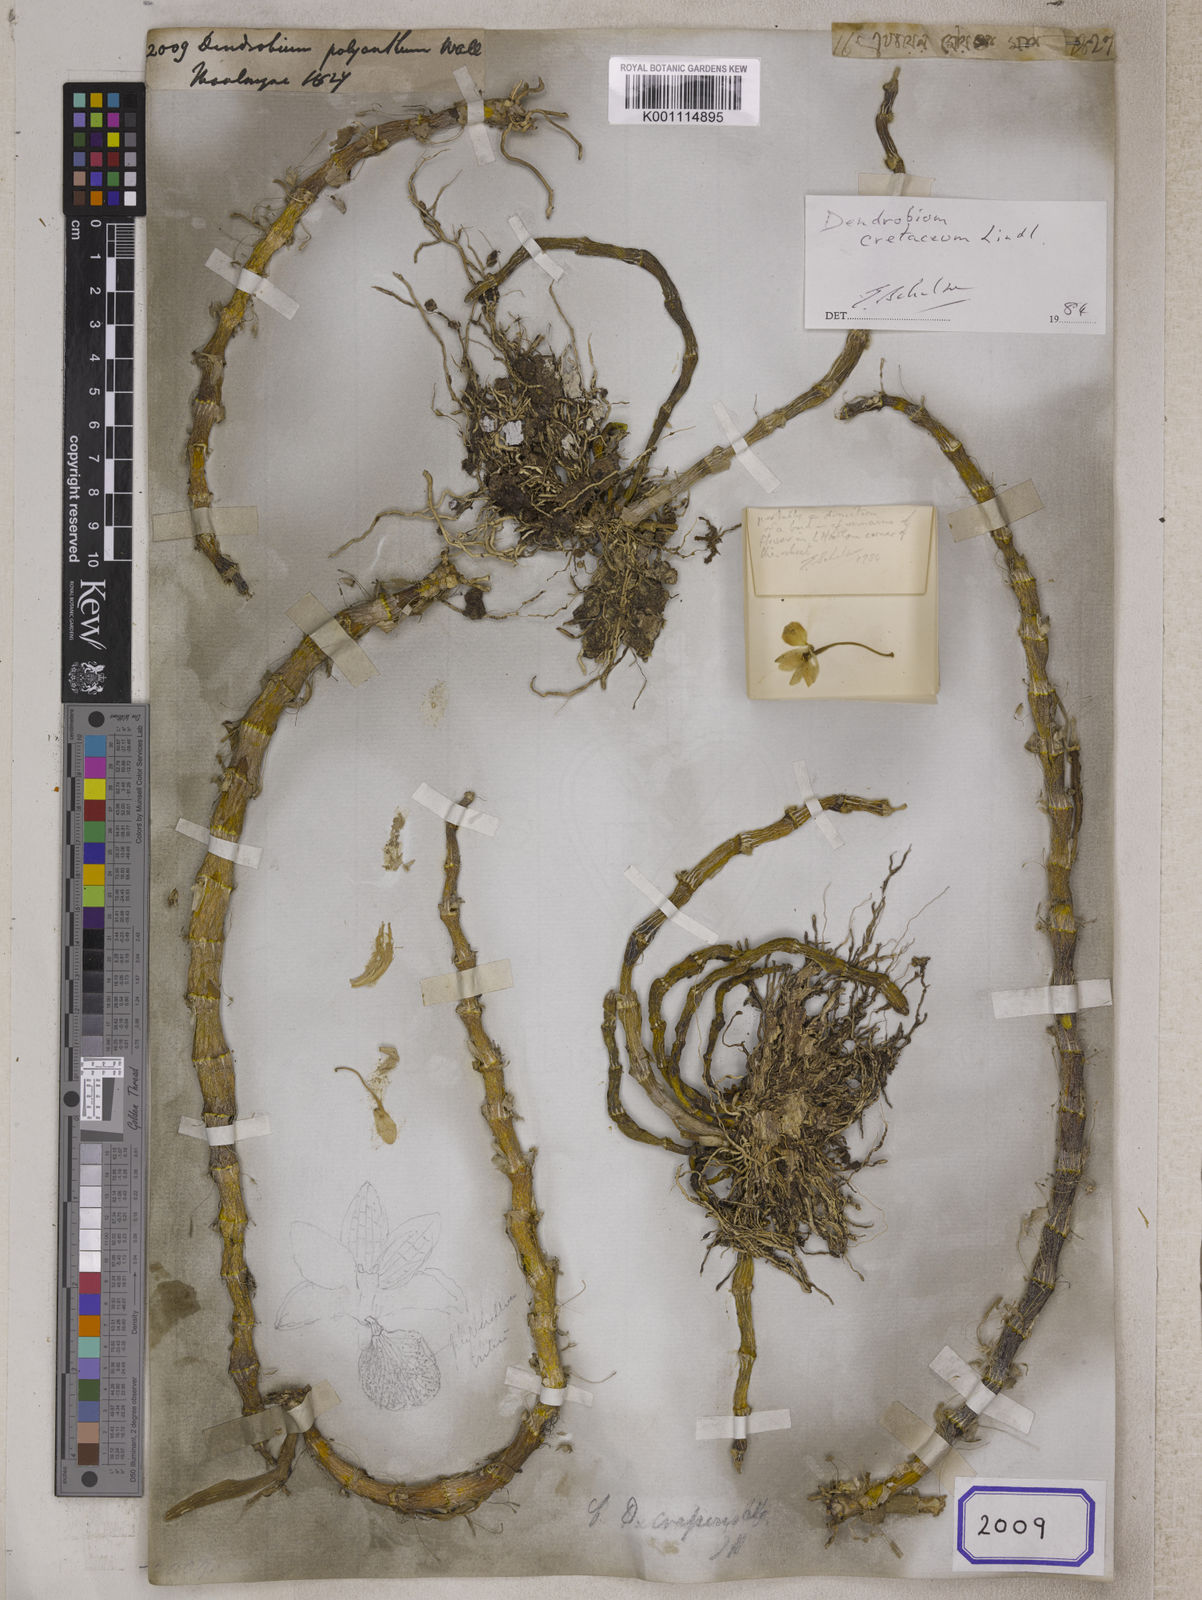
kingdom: Plantae
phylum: Tracheophyta
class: Liliopsida
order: Asparagales
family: Orchidaceae
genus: Dendrobium
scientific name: Dendrobium
